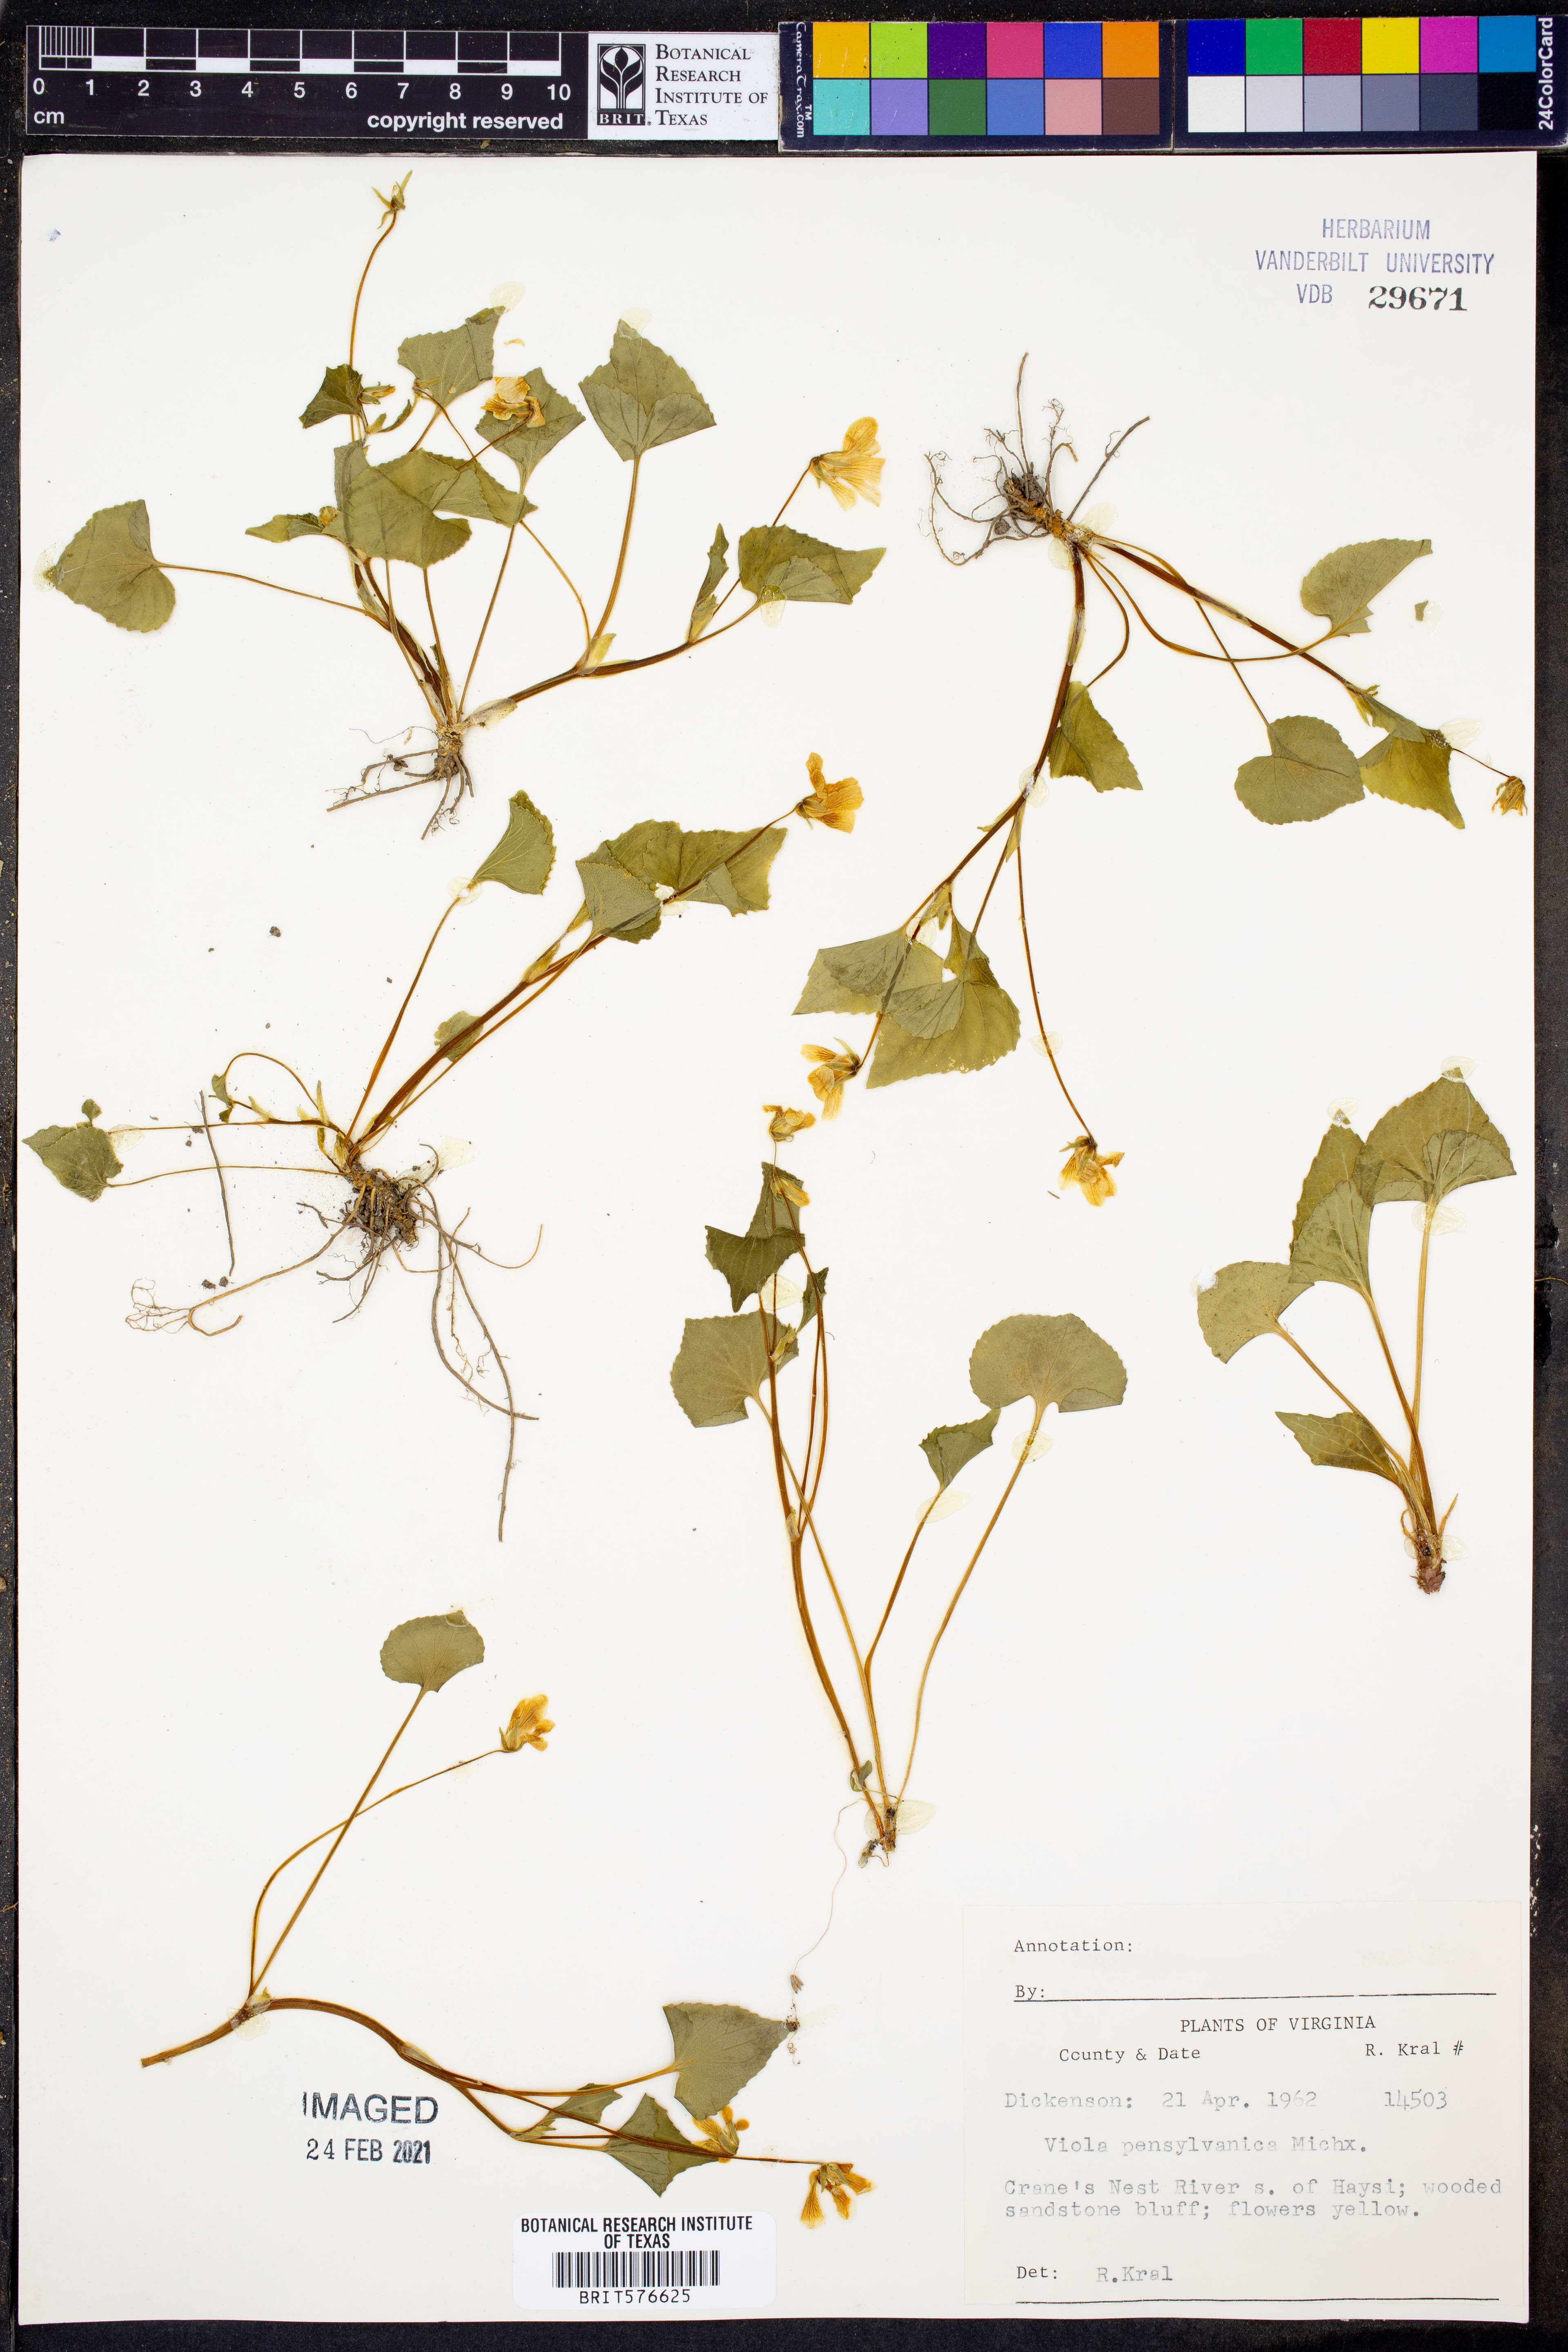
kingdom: Plantae
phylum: Tracheophyta
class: Magnoliopsida
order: Malpighiales
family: Violaceae
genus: Viola
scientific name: Viola pubescens
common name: Yellow forest violet
